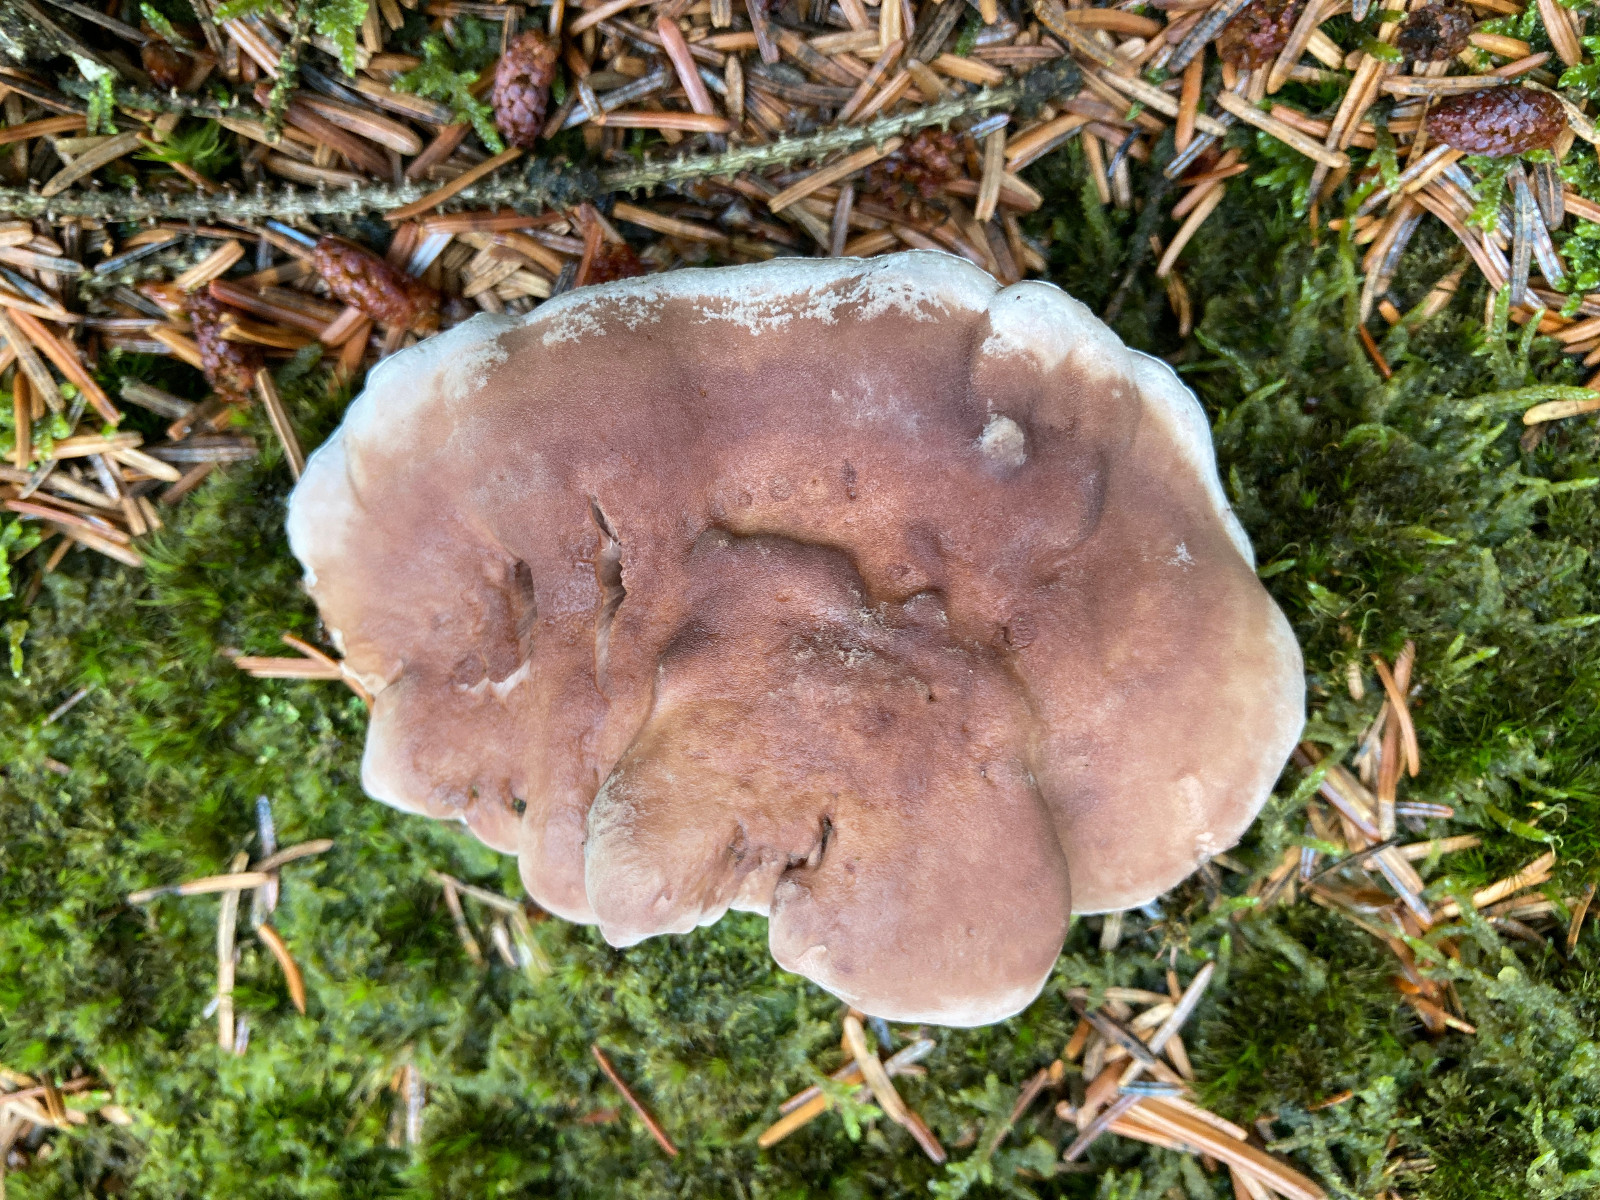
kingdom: Fungi
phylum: Basidiomycota
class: Agaricomycetes
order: Thelephorales
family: Thelephoraceae
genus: Phellodon
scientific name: Phellodon violascens
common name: violetbrun duftpigsvamp
